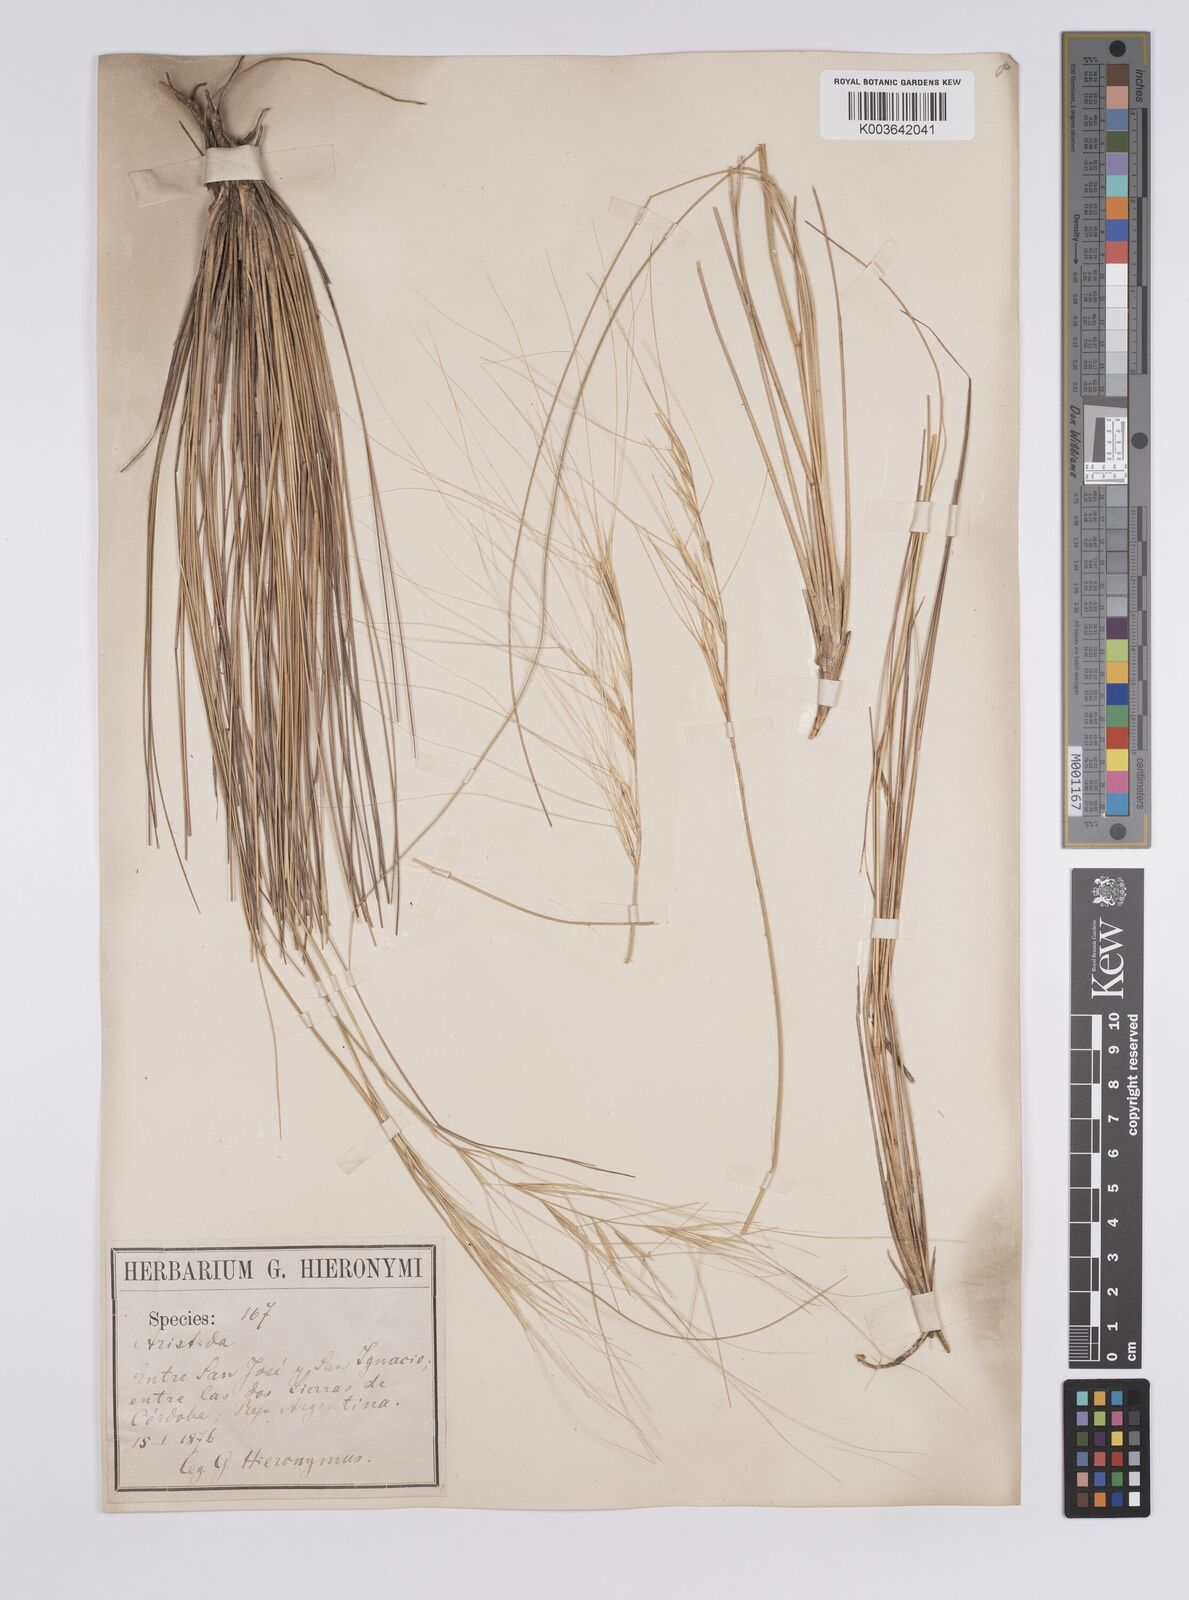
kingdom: Plantae
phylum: Tracheophyta
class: Liliopsida
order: Poales
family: Poaceae
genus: Aristida
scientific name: Aristida pallens
